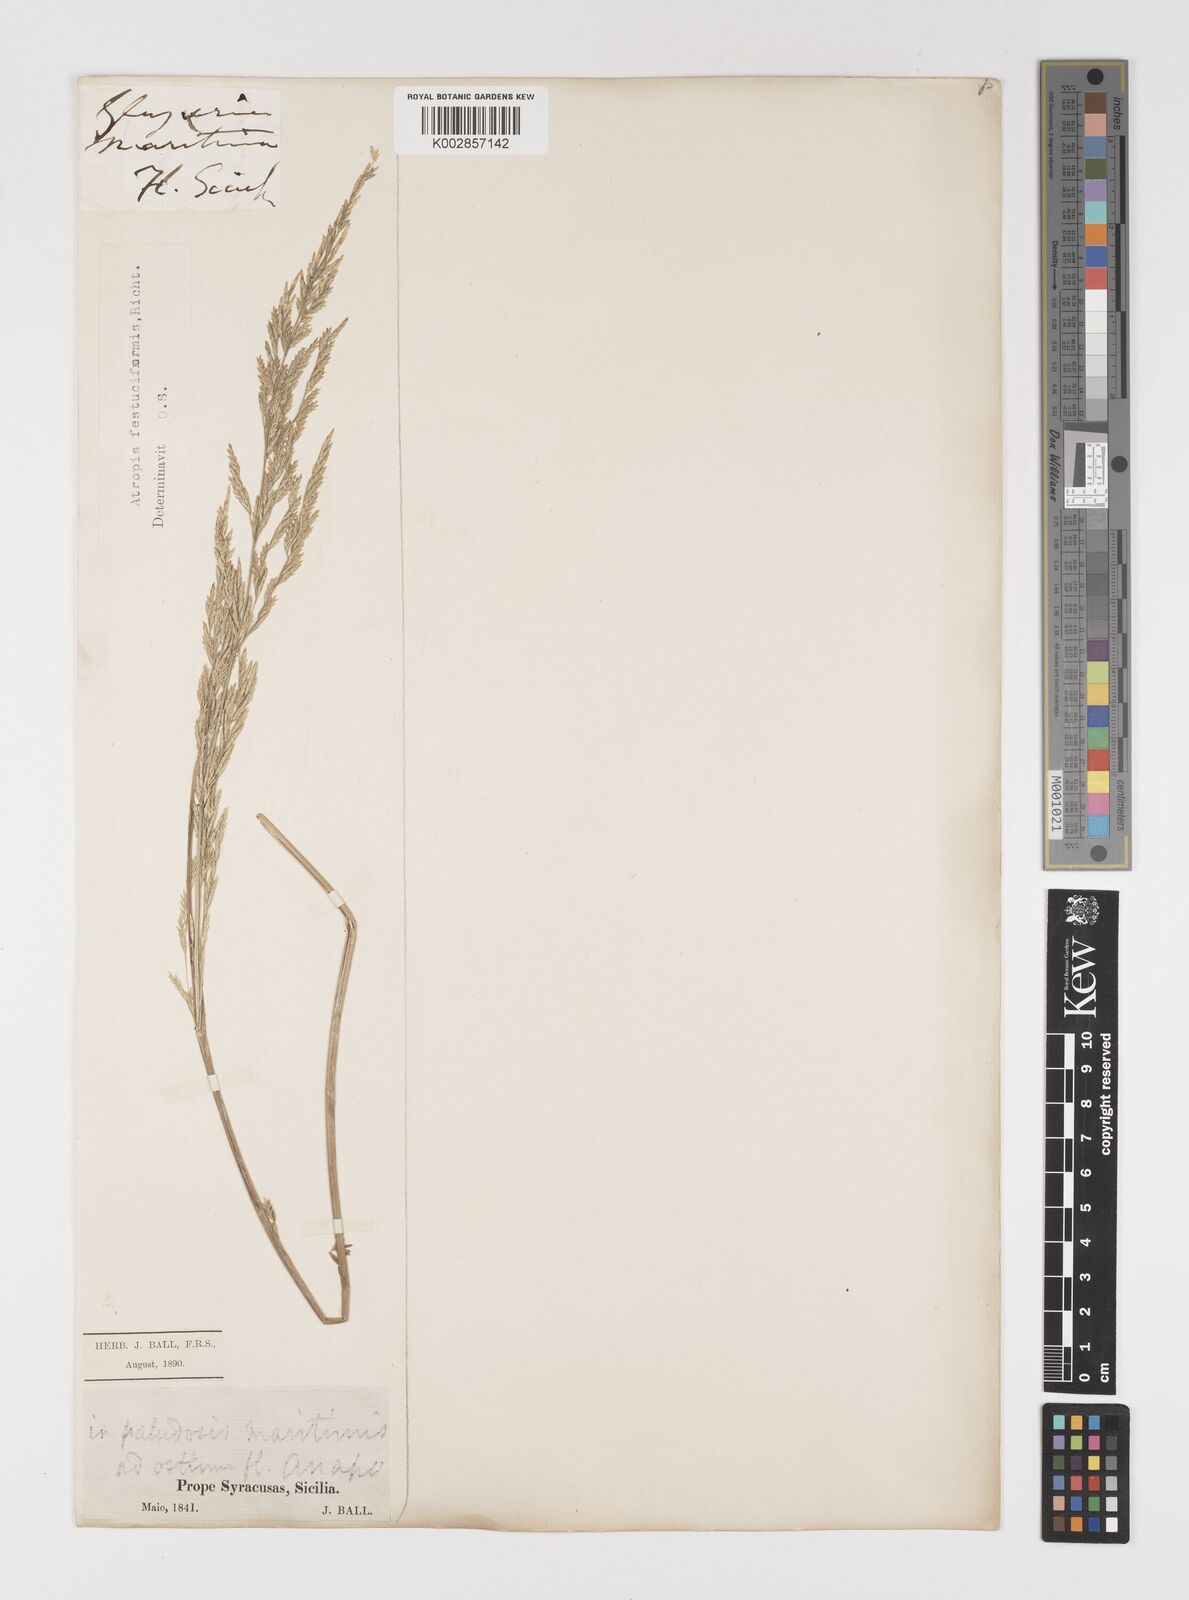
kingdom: Plantae
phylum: Tracheophyta
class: Liliopsida
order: Poales
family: Poaceae
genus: Puccinellia
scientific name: Puccinellia festuciformis
